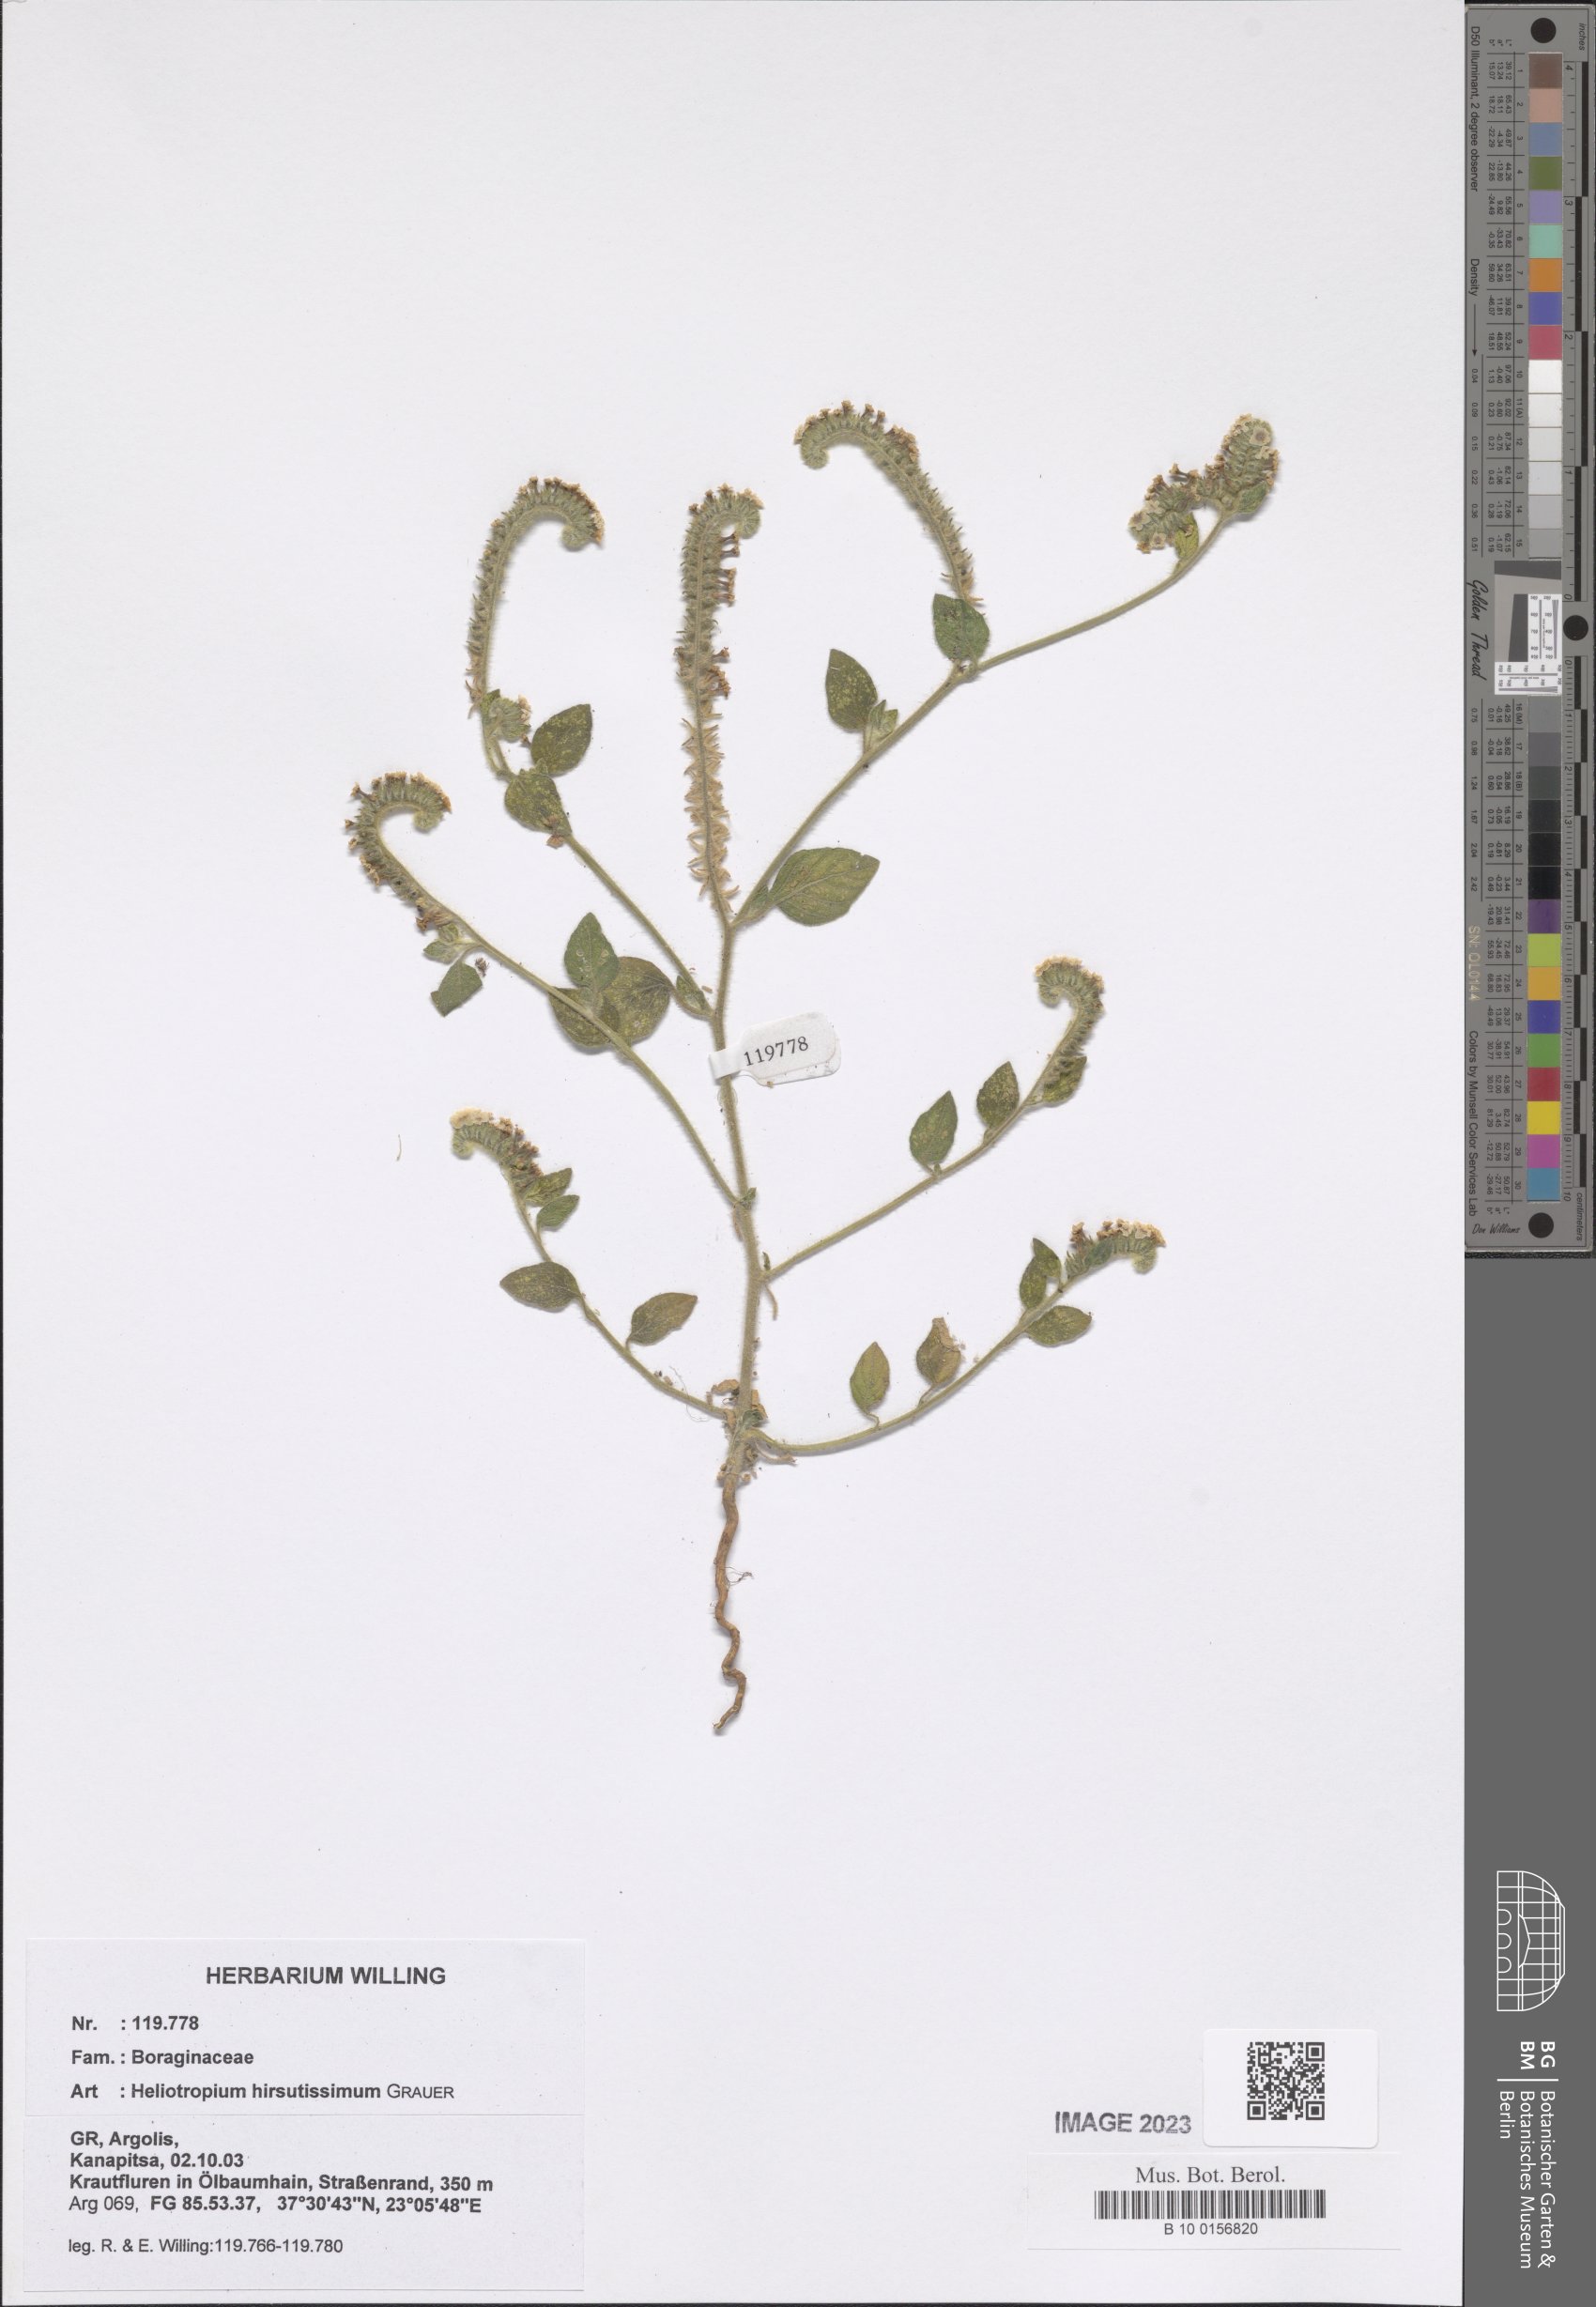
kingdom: Plantae
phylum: Tracheophyta
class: Magnoliopsida
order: Boraginales
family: Heliotropiaceae
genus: Heliotropium
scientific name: Heliotropium hirsutissimum
